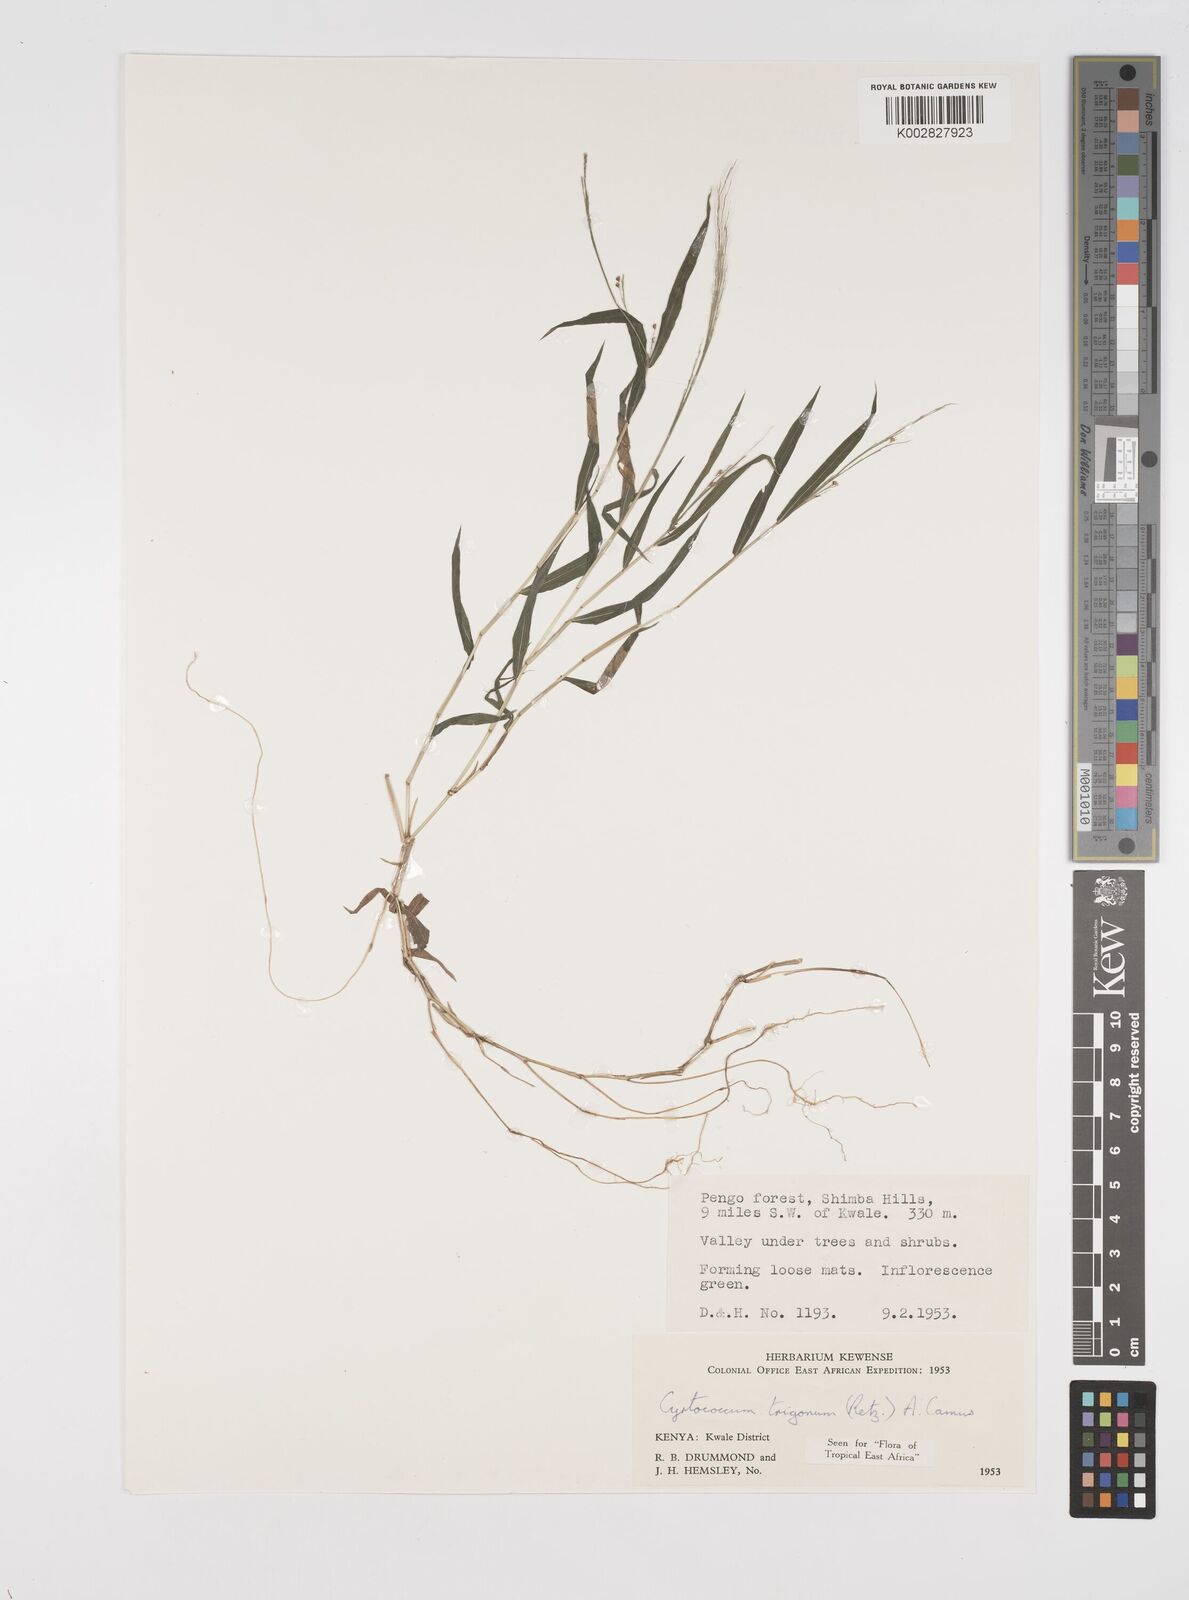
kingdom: Plantae
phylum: Tracheophyta
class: Liliopsida
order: Poales
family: Poaceae
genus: Cyrtococcum
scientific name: Cyrtococcum trigonum
